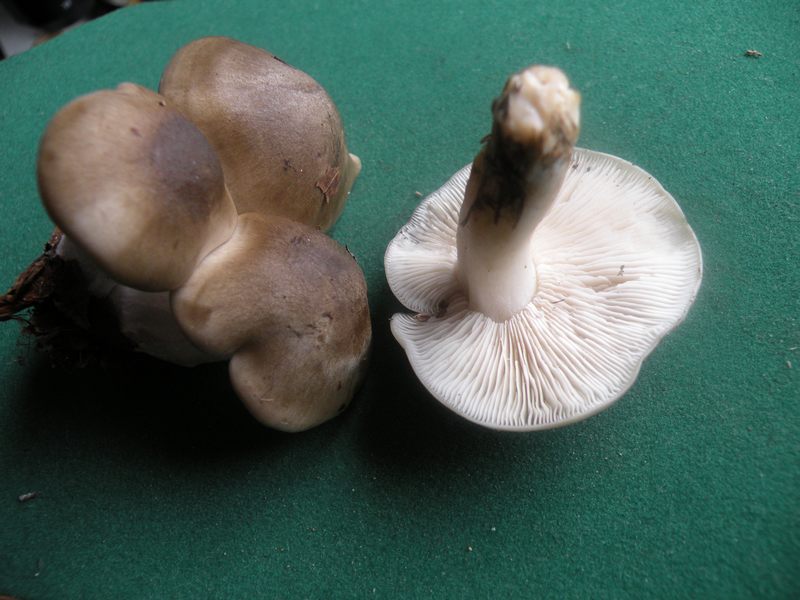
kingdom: Fungi
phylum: Basidiomycota
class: Agaricomycetes
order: Agaricales
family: Lyophyllaceae
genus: Lyophyllum
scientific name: Lyophyllum decastes
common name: røggrå gråblad
